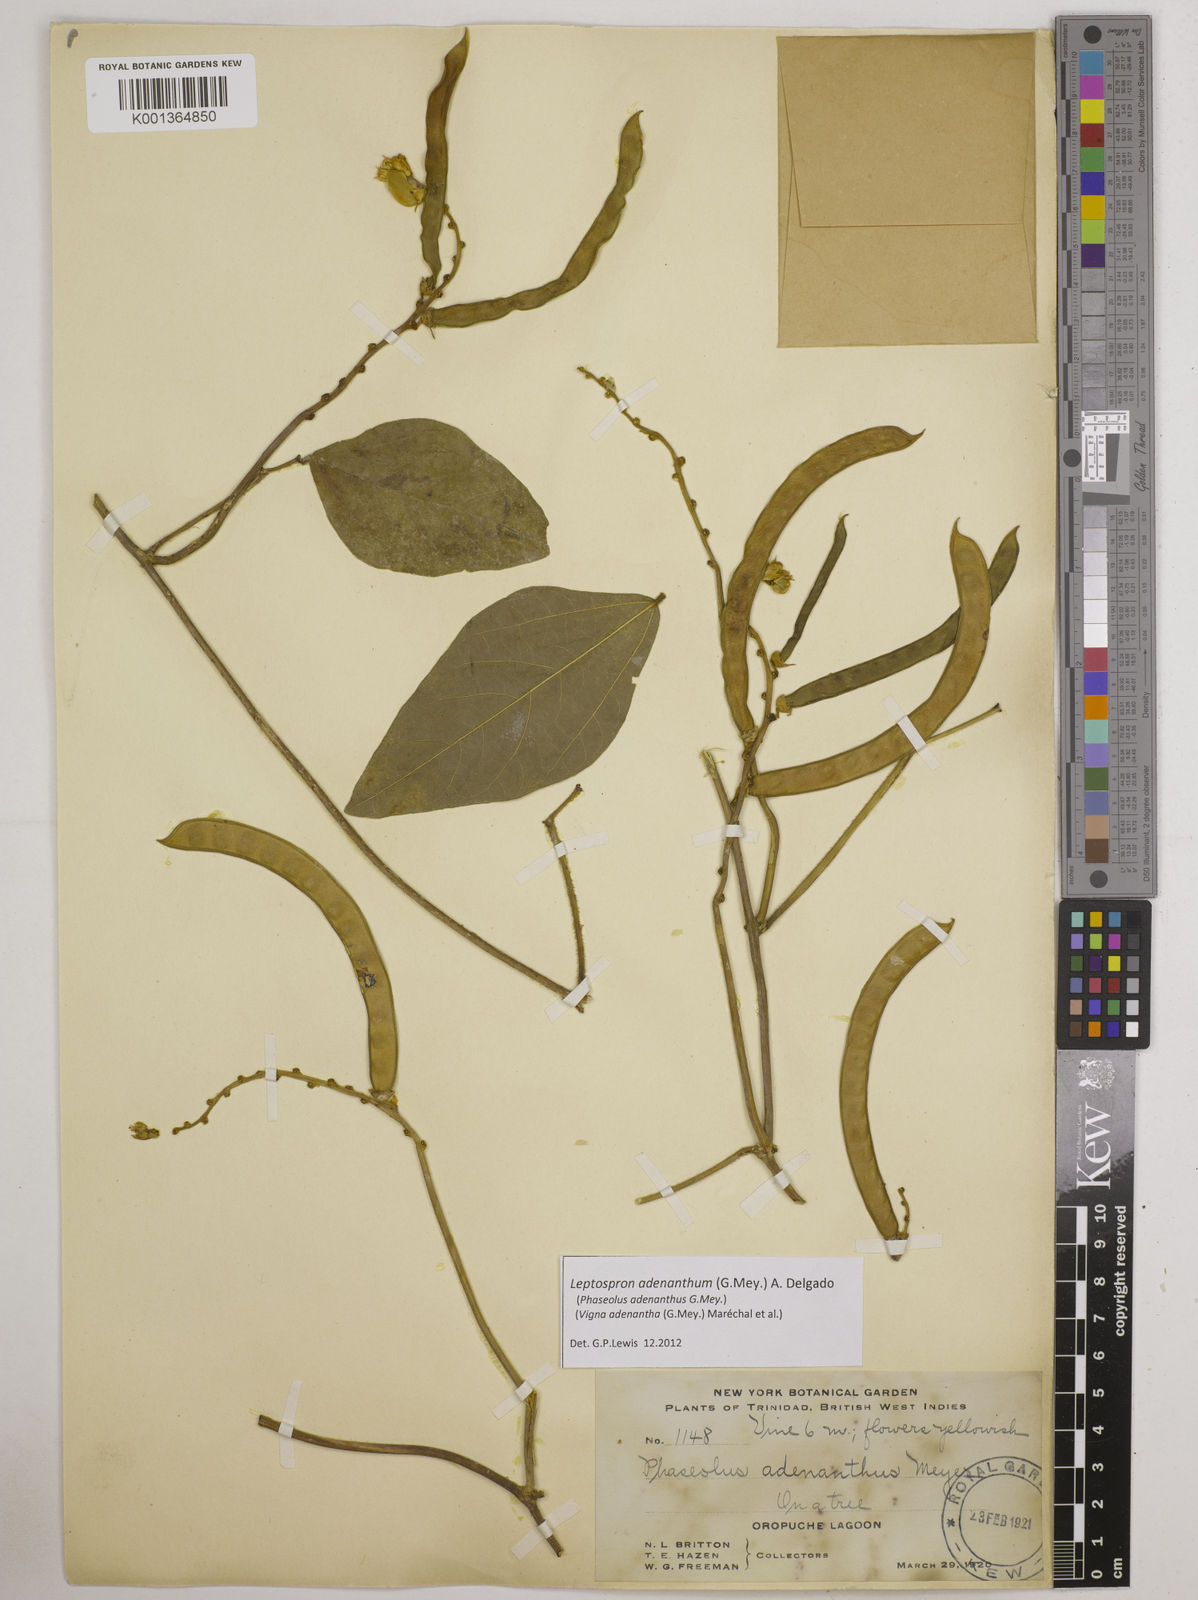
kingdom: Plantae
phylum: Tracheophyta
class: Magnoliopsida
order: Fabales
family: Fabaceae
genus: Leptospron
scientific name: Leptospron adenanthum
